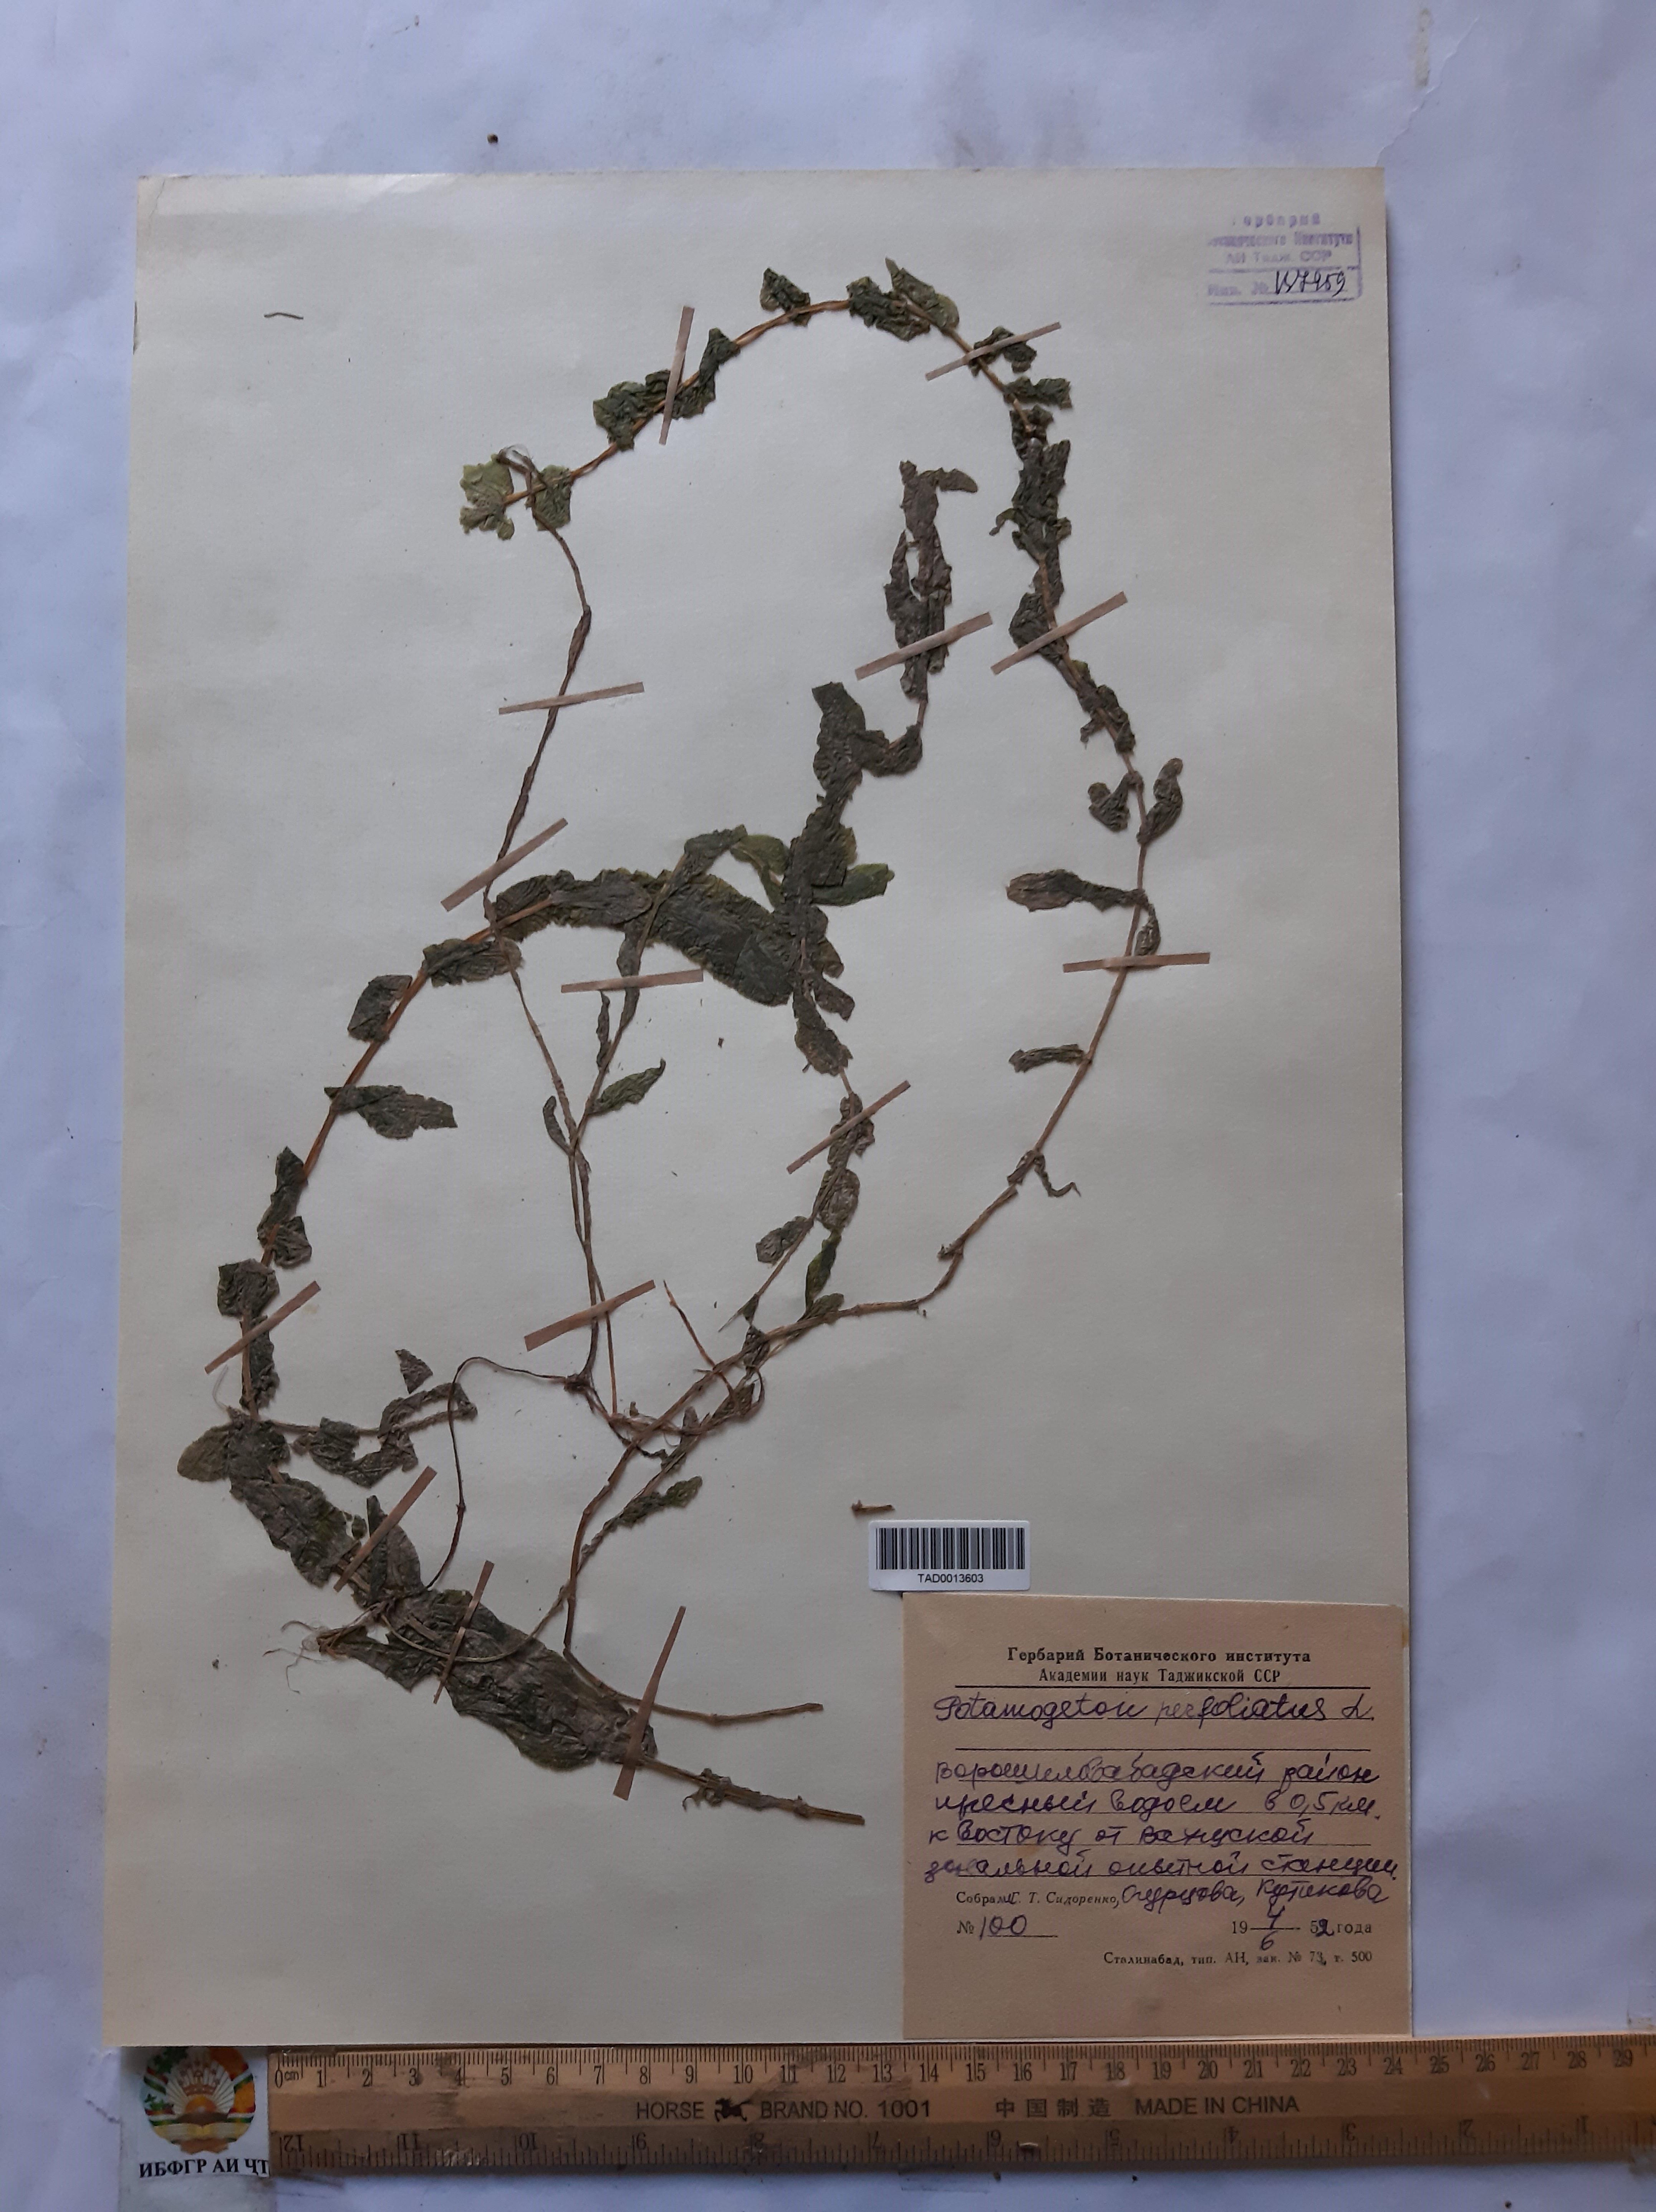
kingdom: Plantae
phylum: Tracheophyta
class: Liliopsida
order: Alismatales
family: Potamogetonaceae
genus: Potamogeton
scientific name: Potamogeton perfoliatus
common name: Perfoliate pondweed
